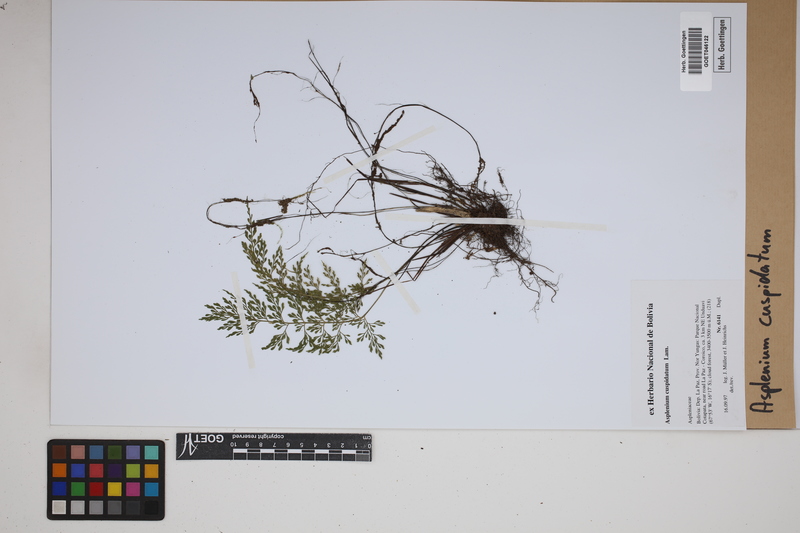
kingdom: Plantae
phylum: Tracheophyta
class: Polypodiopsida
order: Polypodiales
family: Aspleniaceae
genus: Asplenium
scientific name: Asplenium cuspidatum
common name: Eared spleenwort
